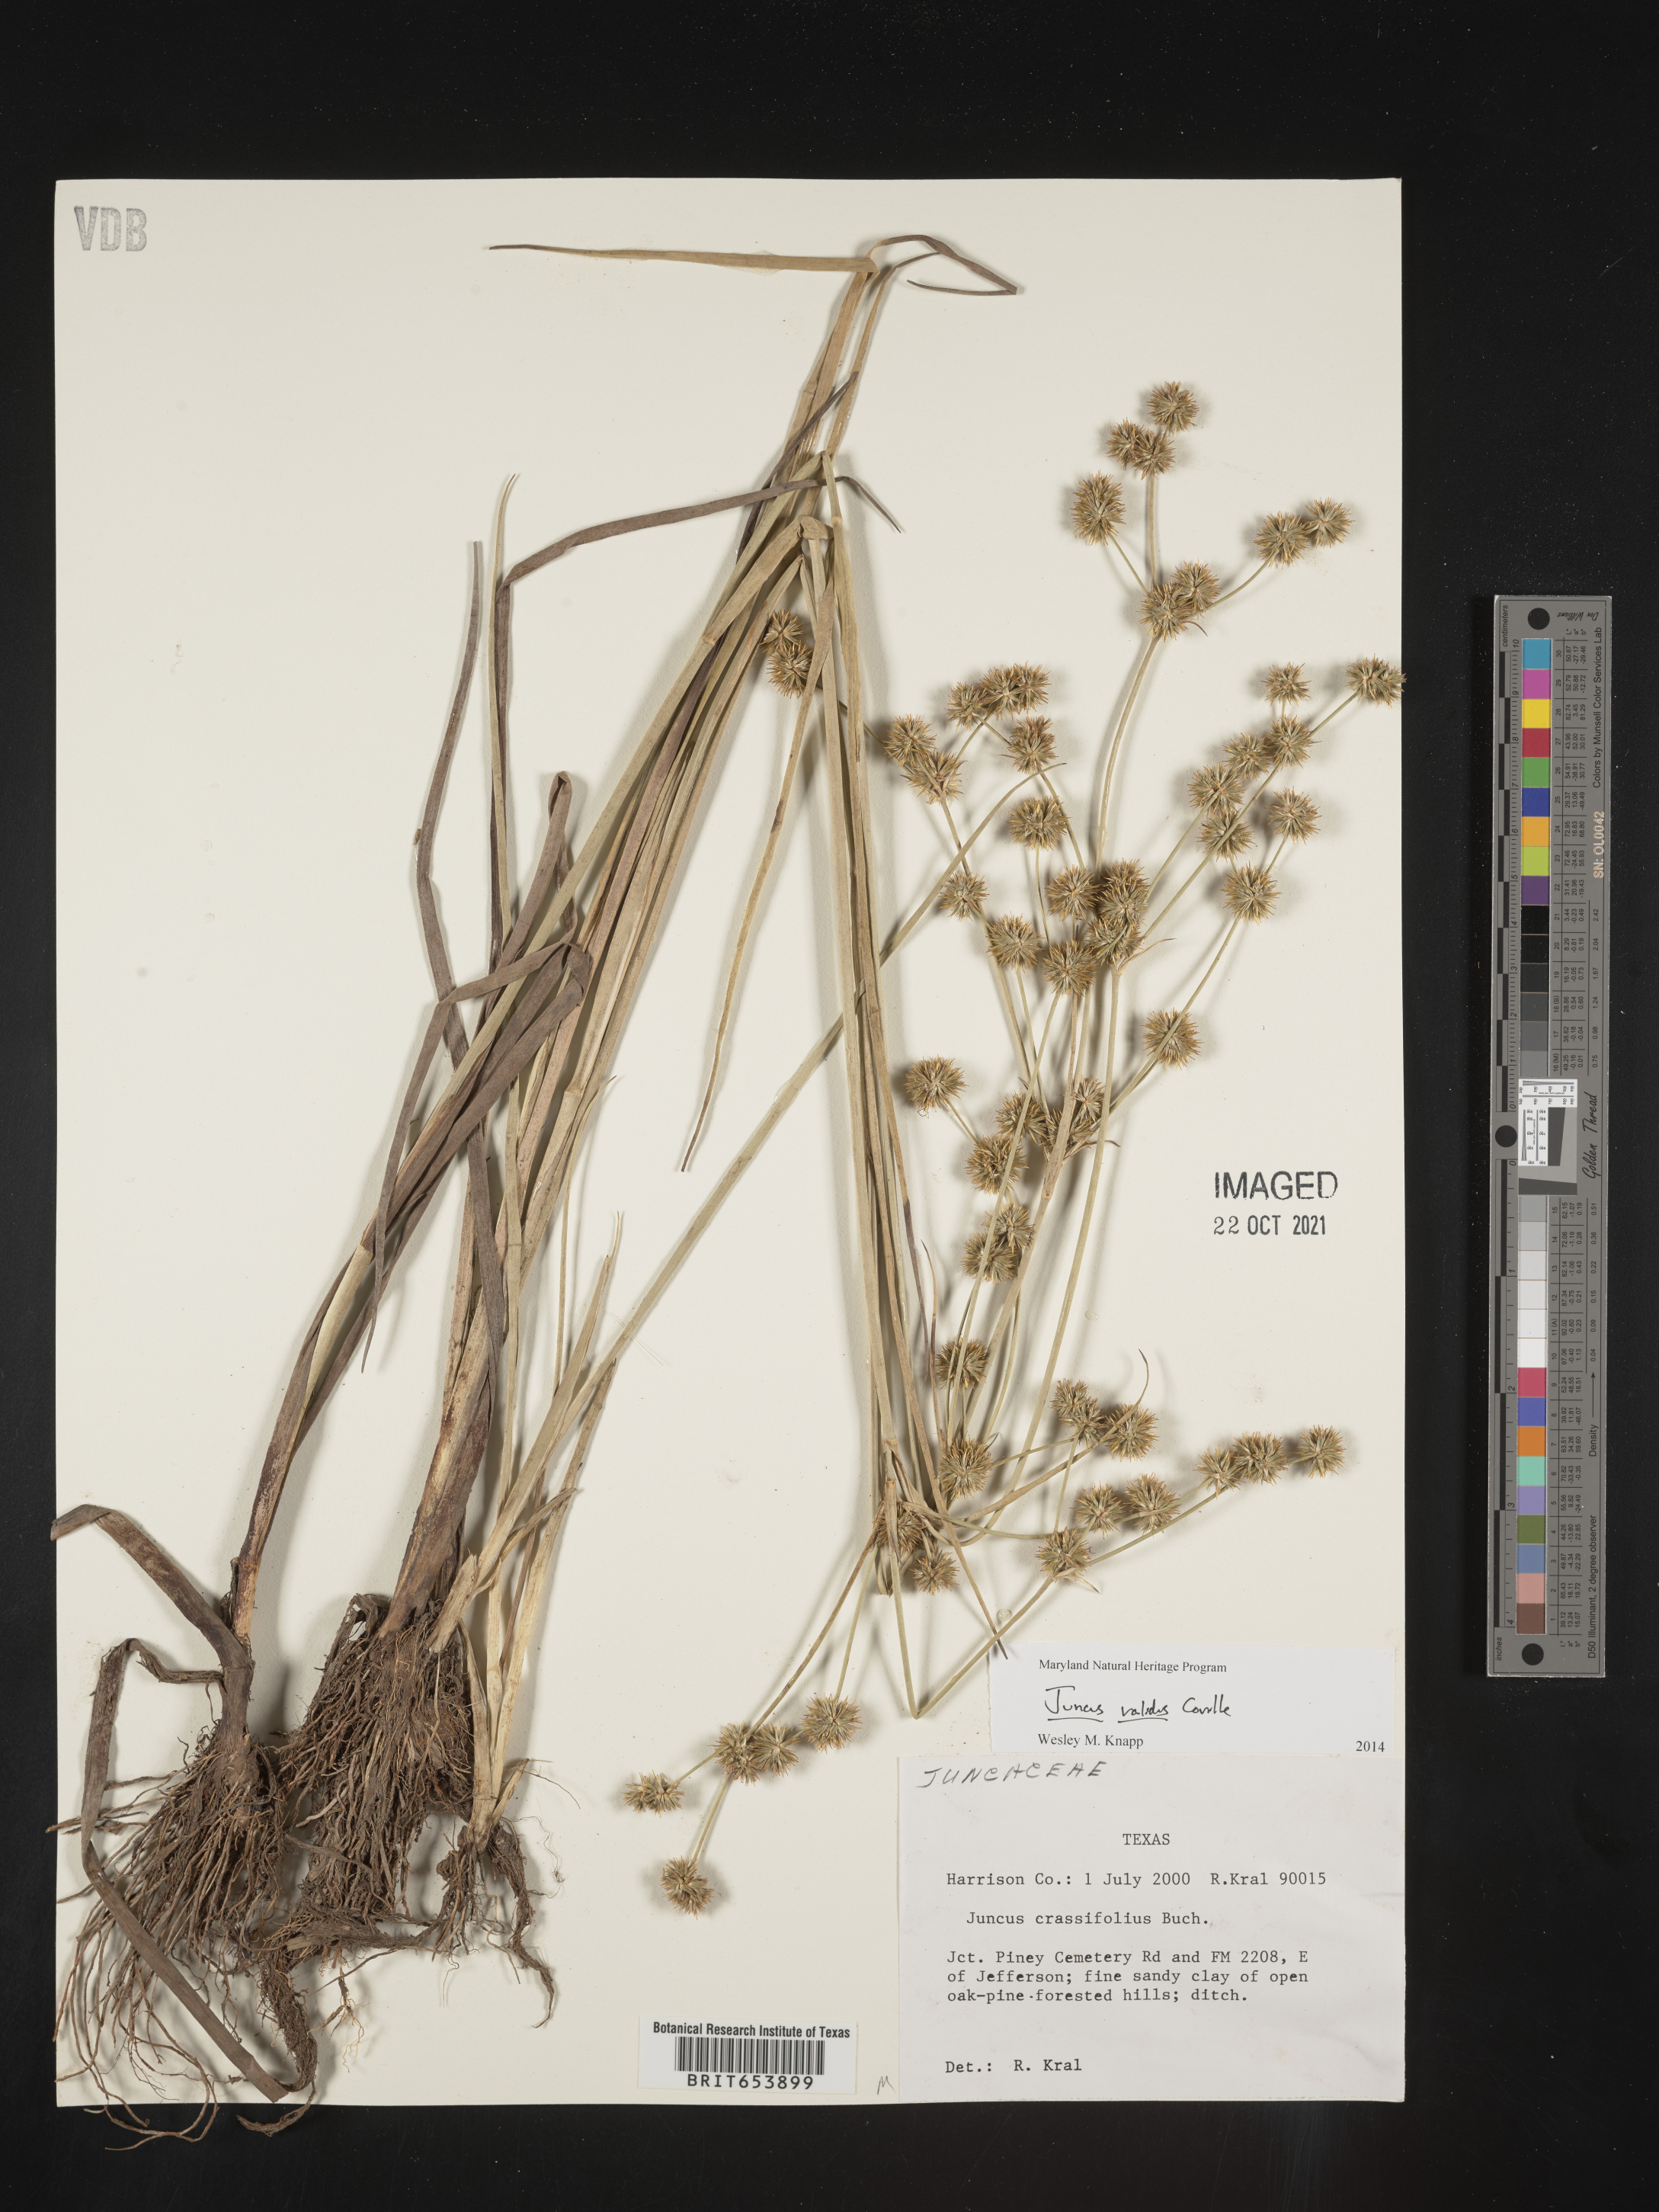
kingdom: Plantae
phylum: Tracheophyta
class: Liliopsida
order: Poales
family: Juncaceae
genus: Juncus
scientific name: Juncus validus
